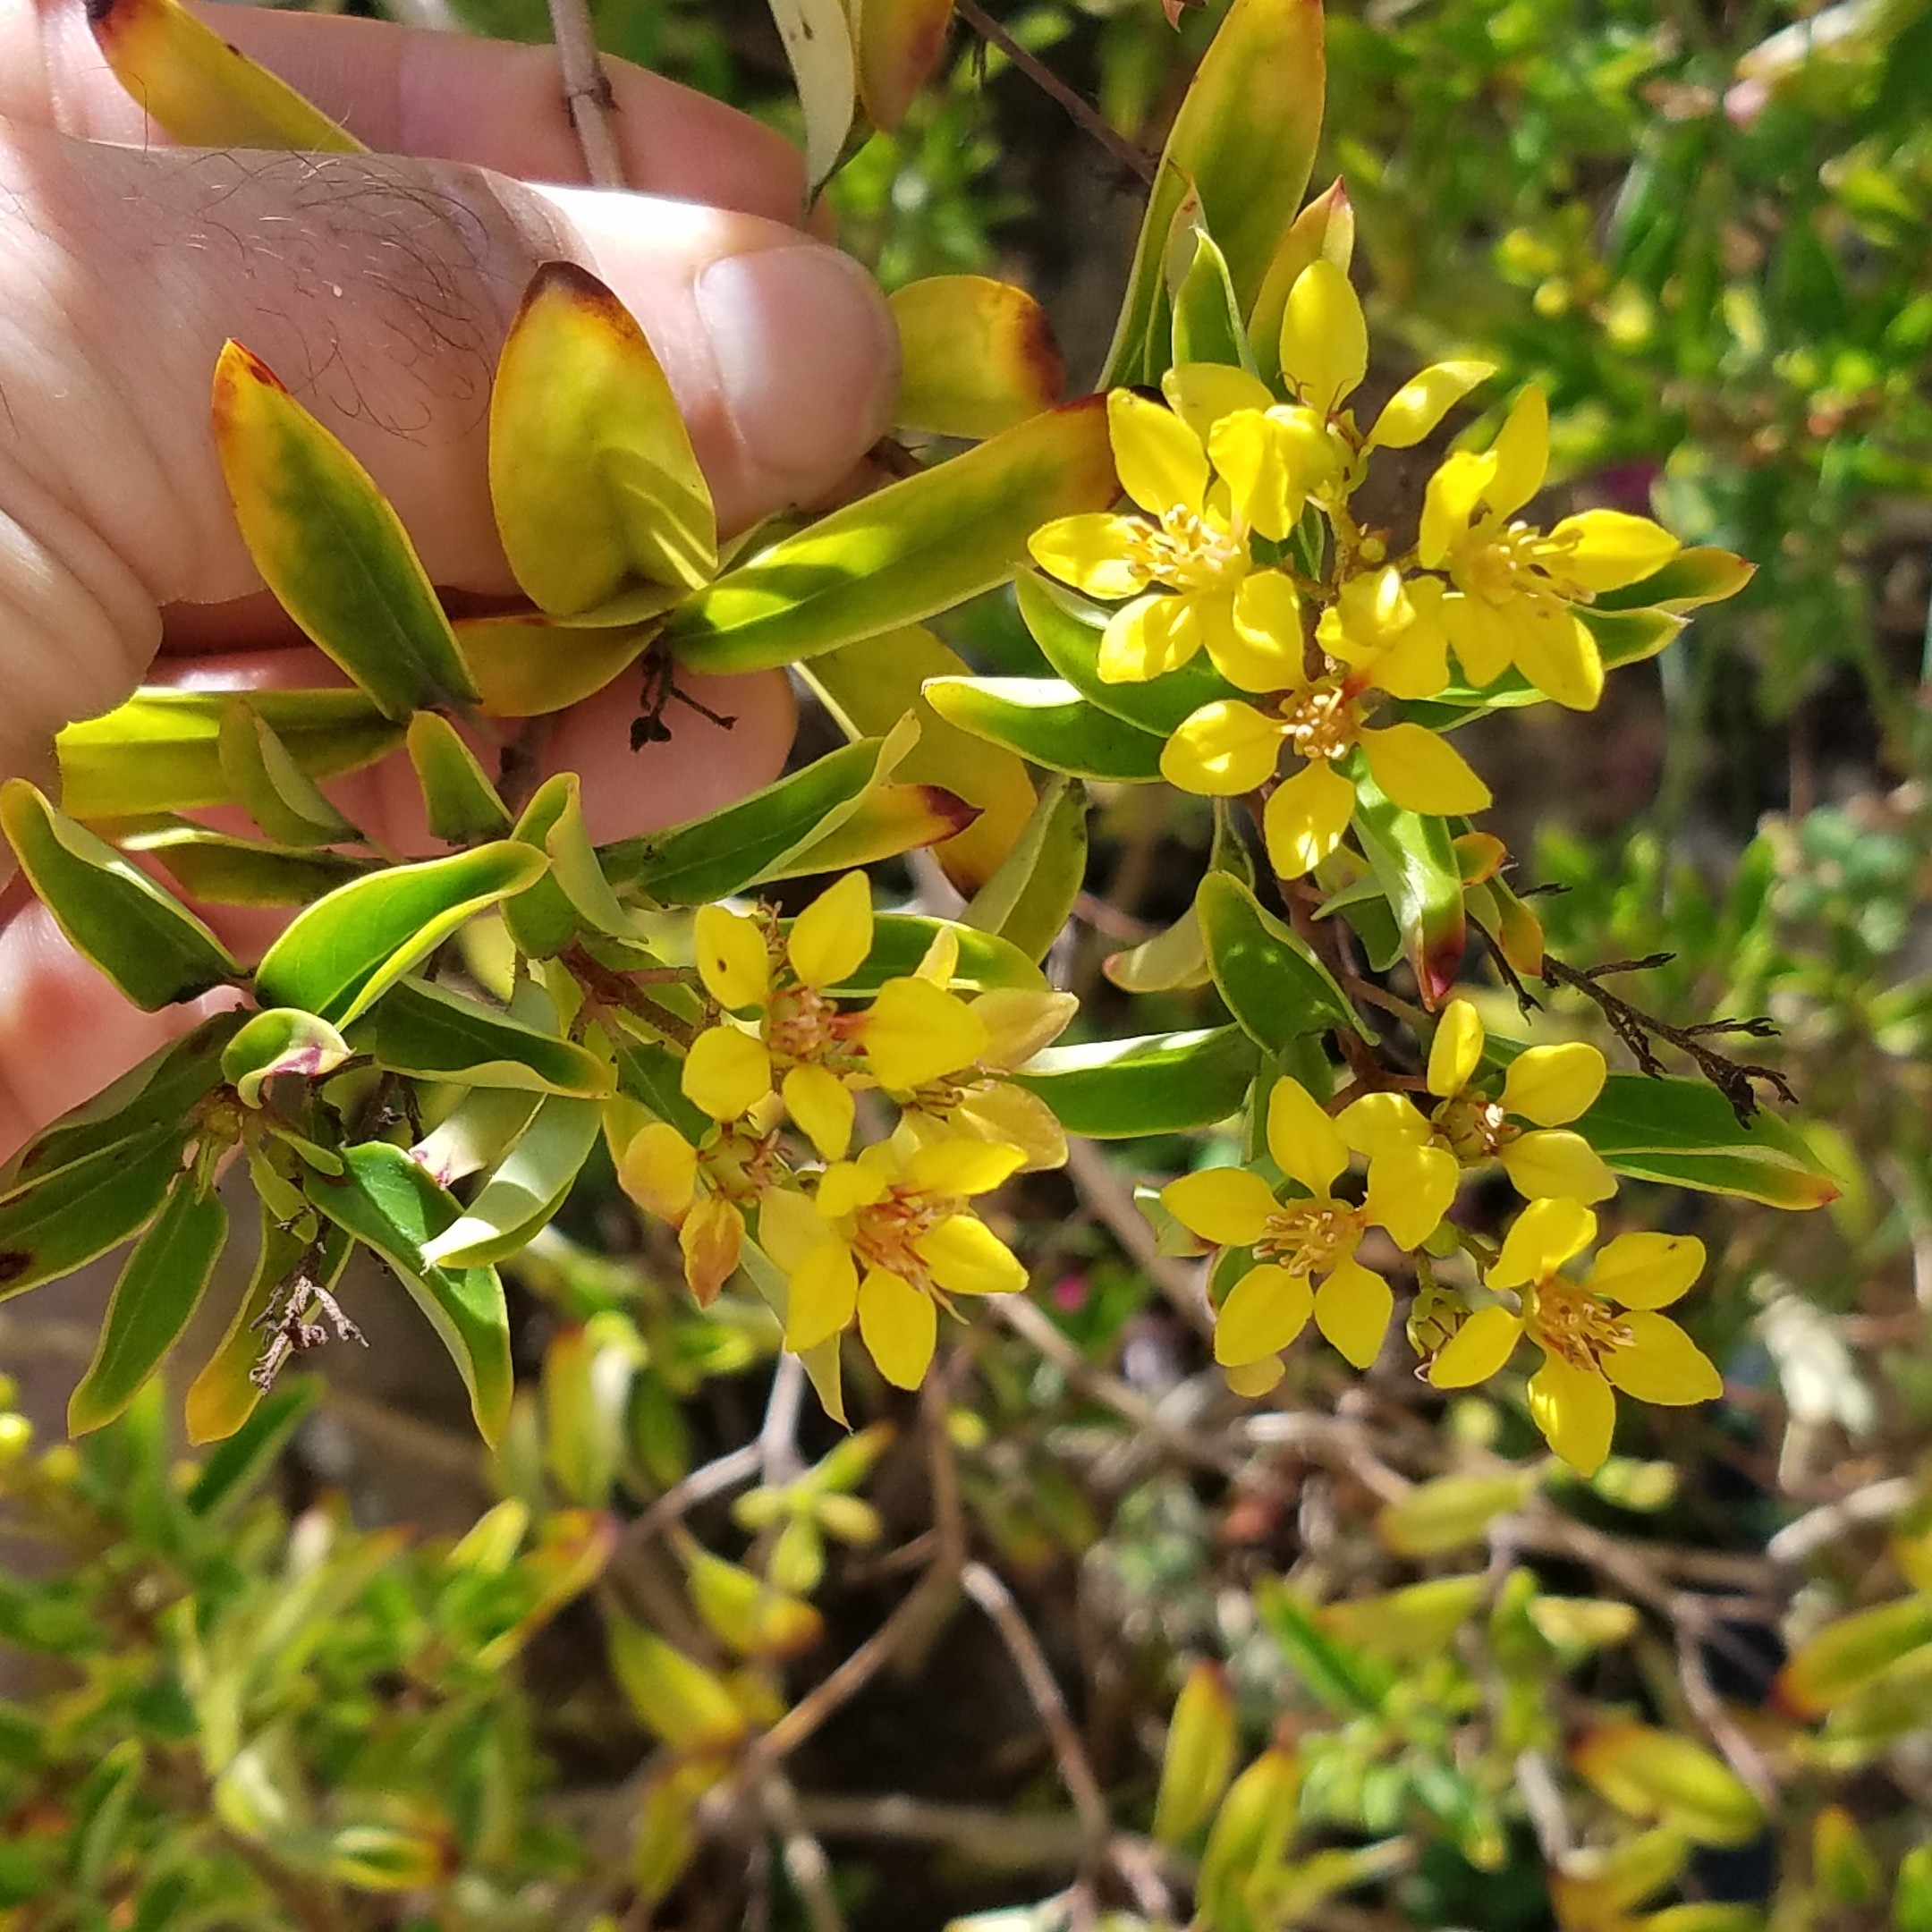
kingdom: Plantae
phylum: Tracheophyta
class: Magnoliopsida
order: Gentianales
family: Rubiaceae
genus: Hamelia
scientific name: Hamelia patens
